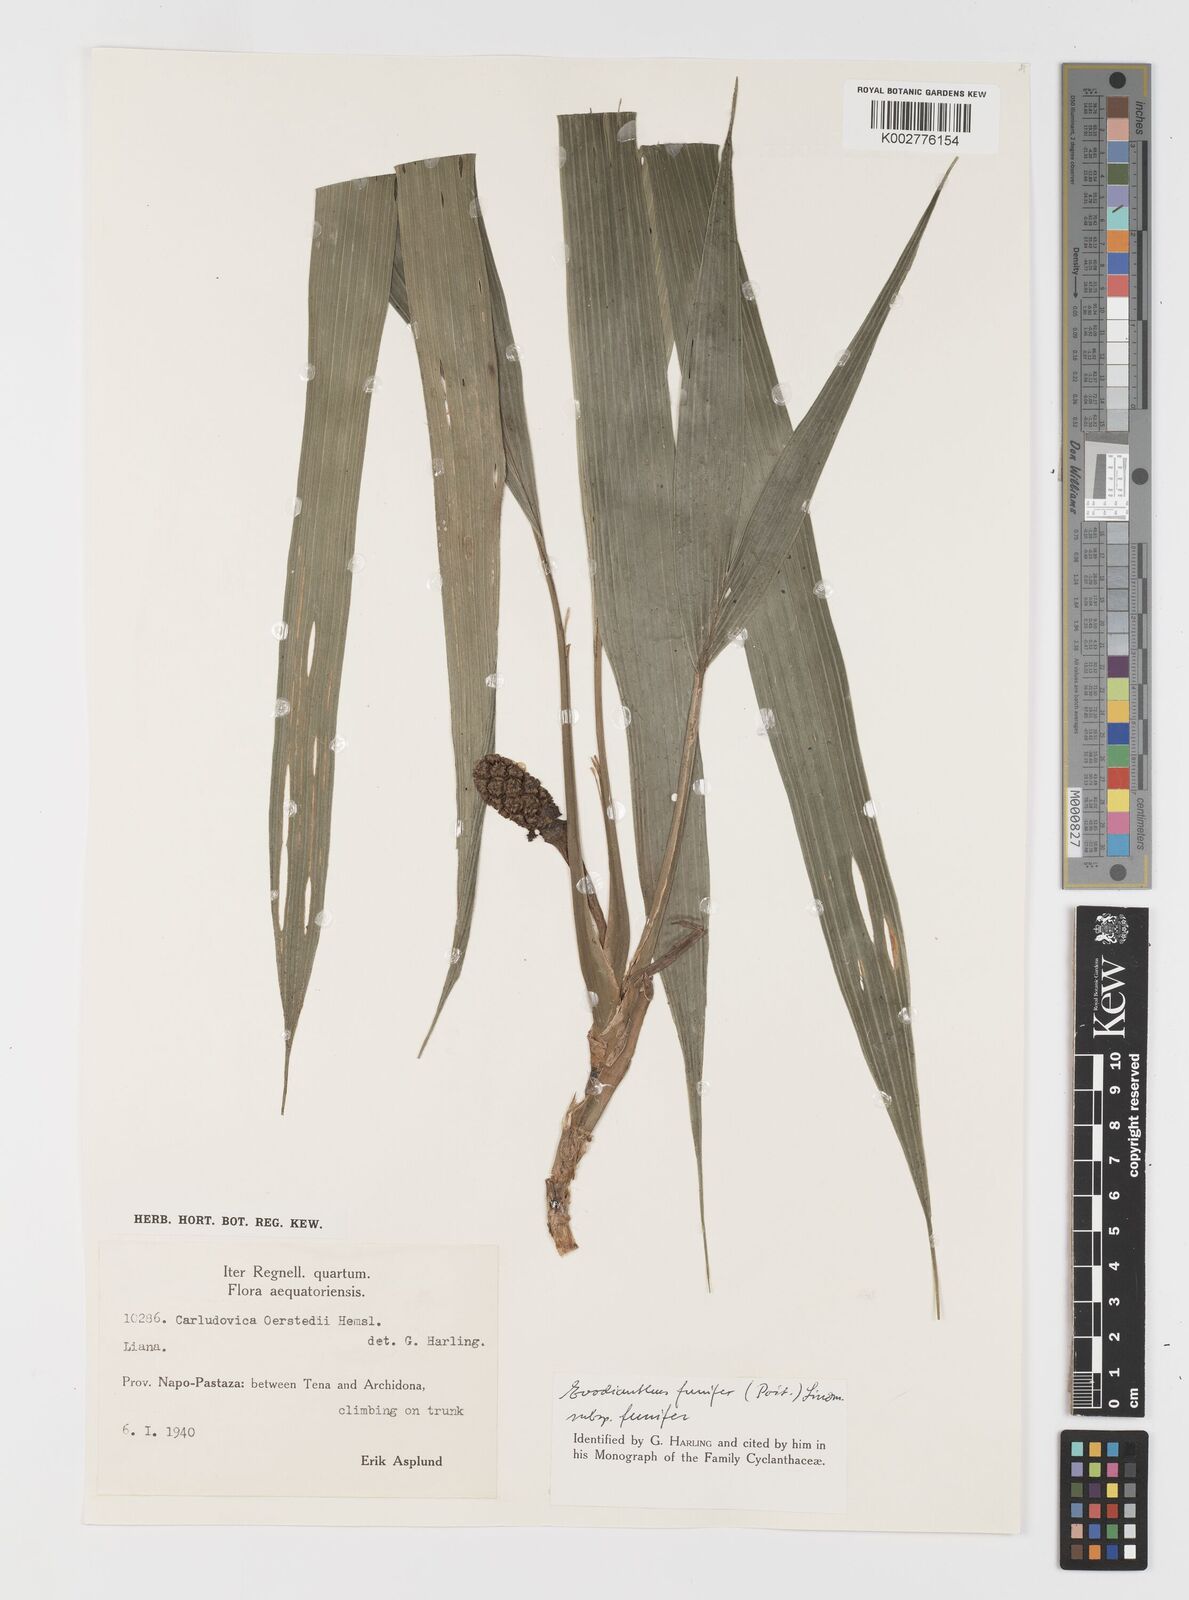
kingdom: Plantae
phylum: Tracheophyta
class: Liliopsida
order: Pandanales
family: Cyclanthaceae
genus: Evodianthus
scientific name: Evodianthus funifer
